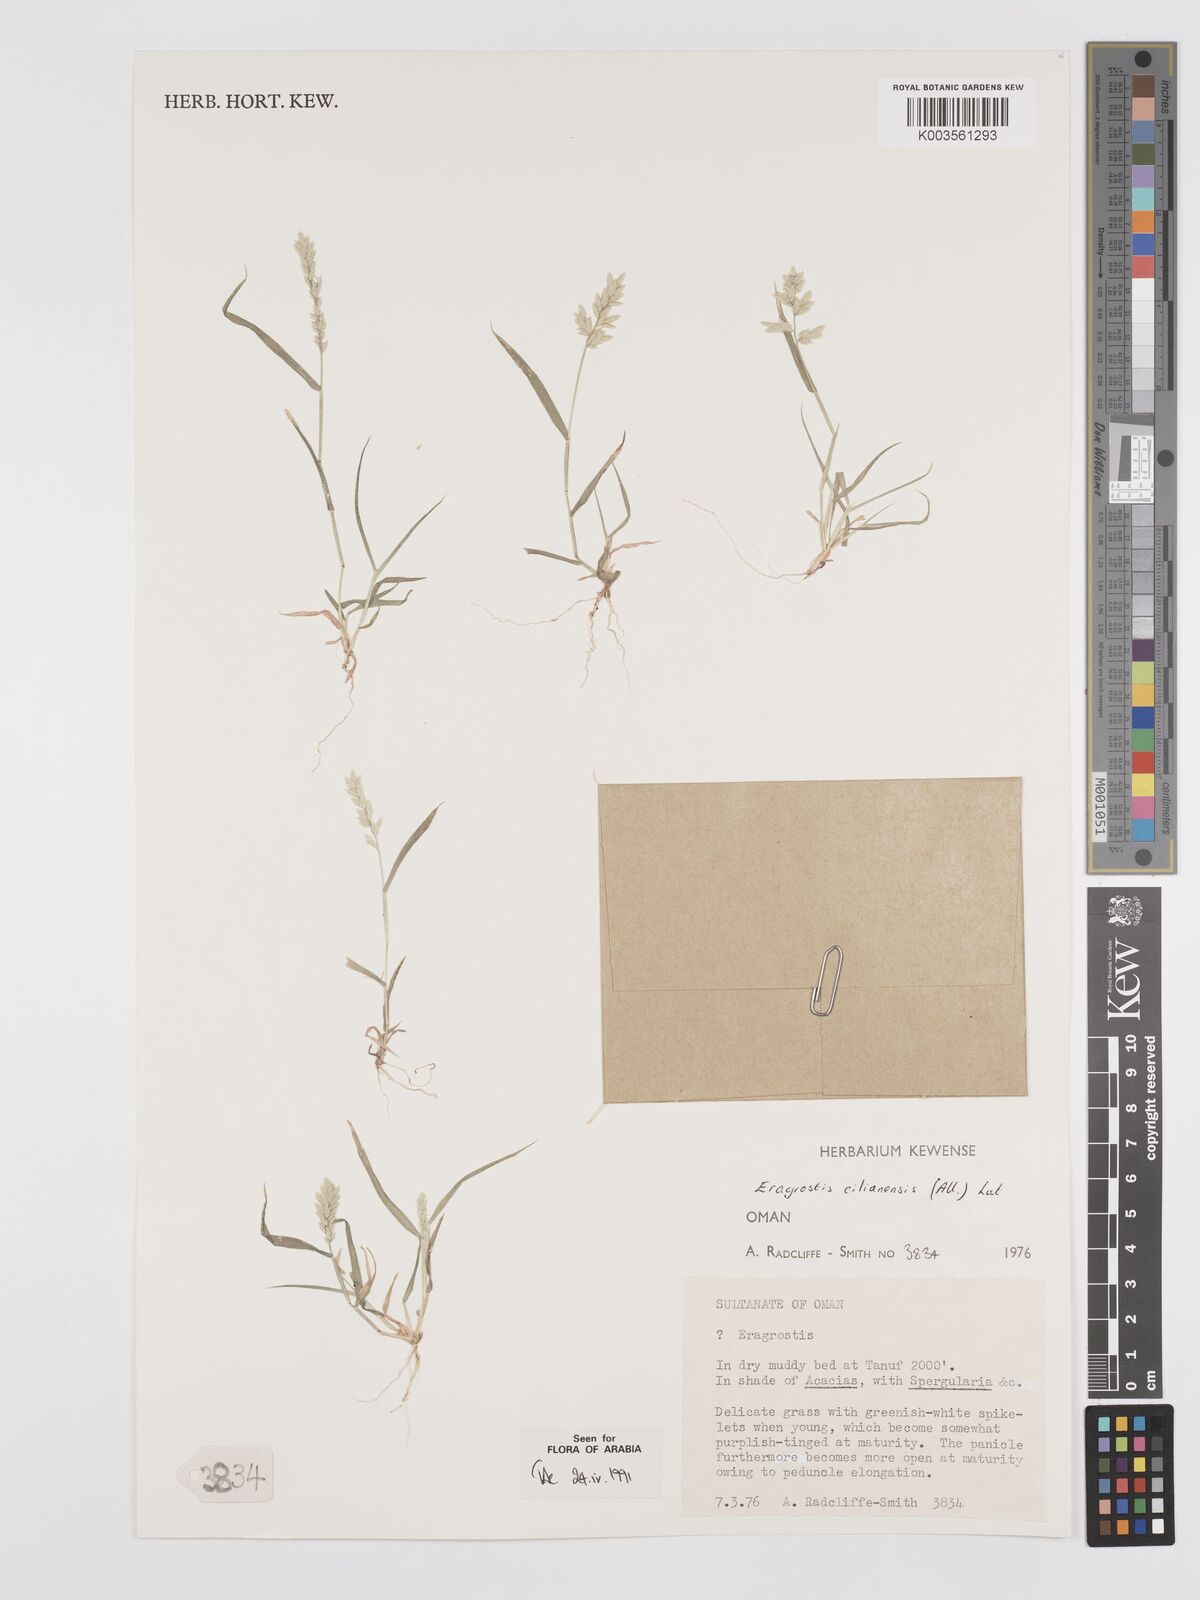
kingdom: Plantae
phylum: Tracheophyta
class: Liliopsida
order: Poales
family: Poaceae
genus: Eragrostis
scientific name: Eragrostis cilianensis
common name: Stinkgrass
